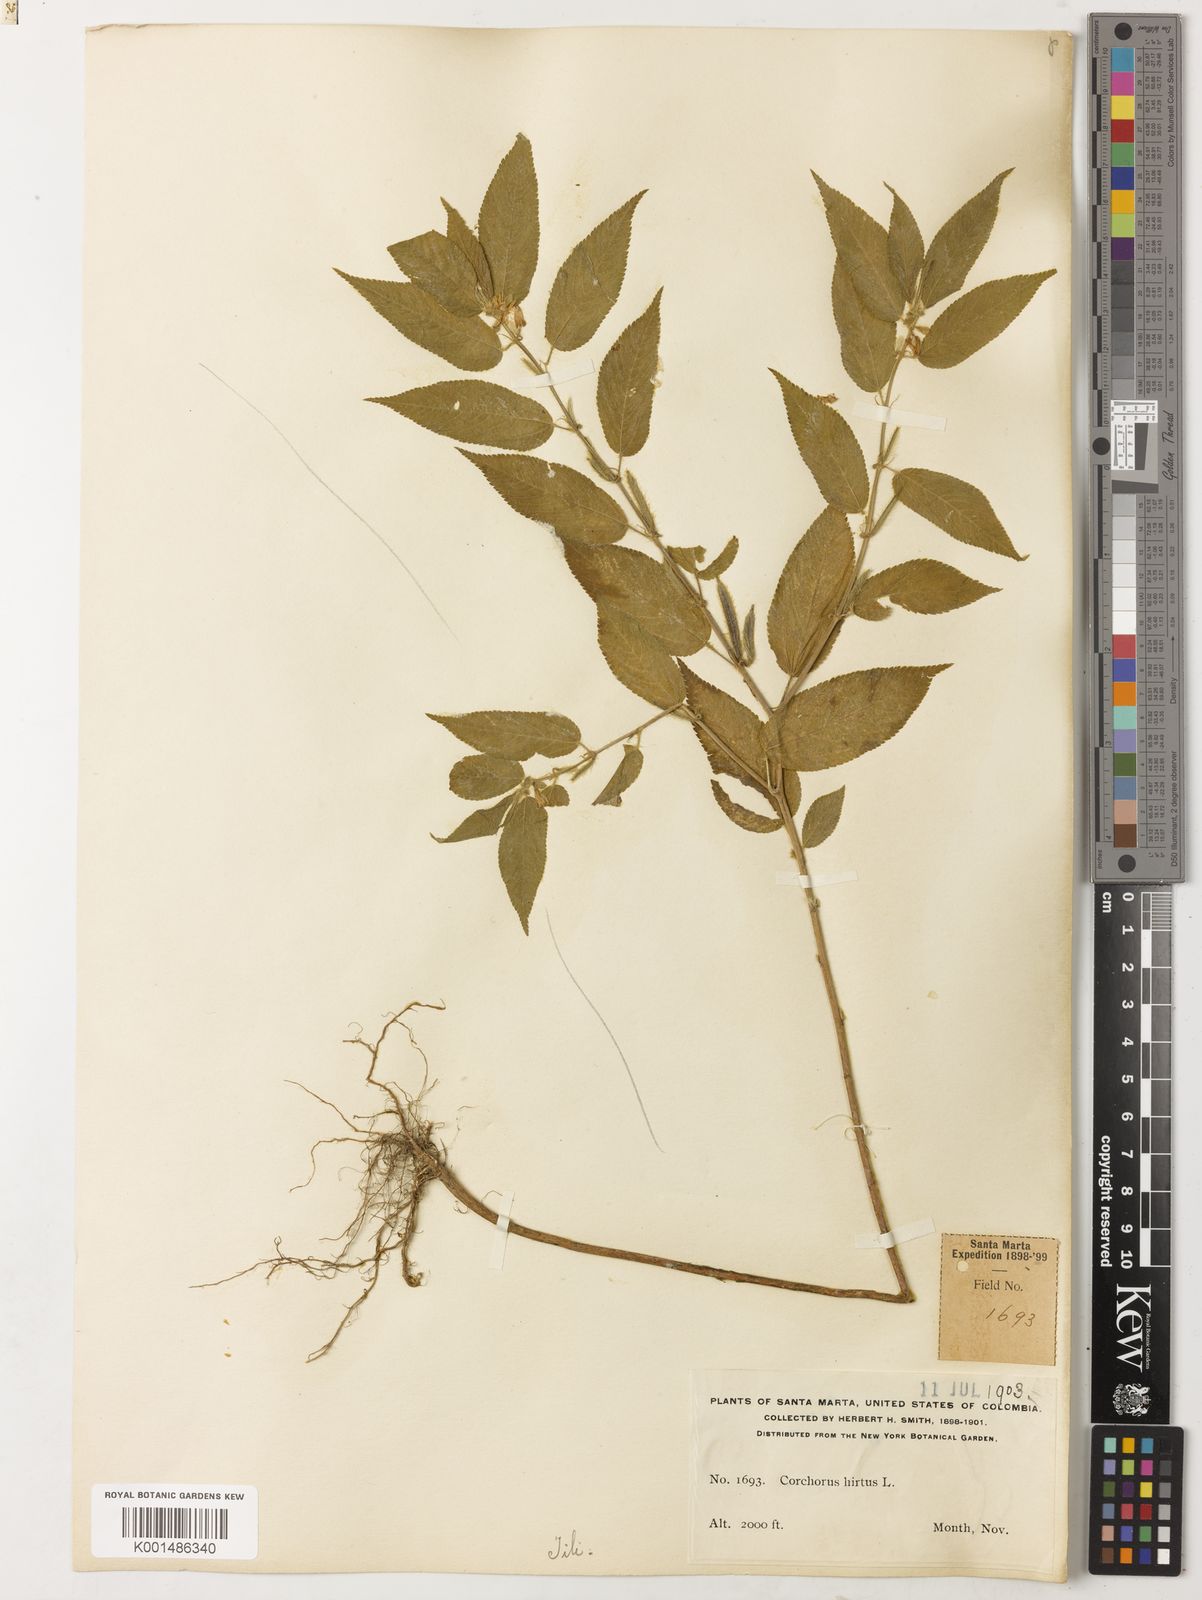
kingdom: Plantae
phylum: Tracheophyta
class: Magnoliopsida
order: Malvales
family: Malvaceae
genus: Corchorus
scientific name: Corchorus hirtus
